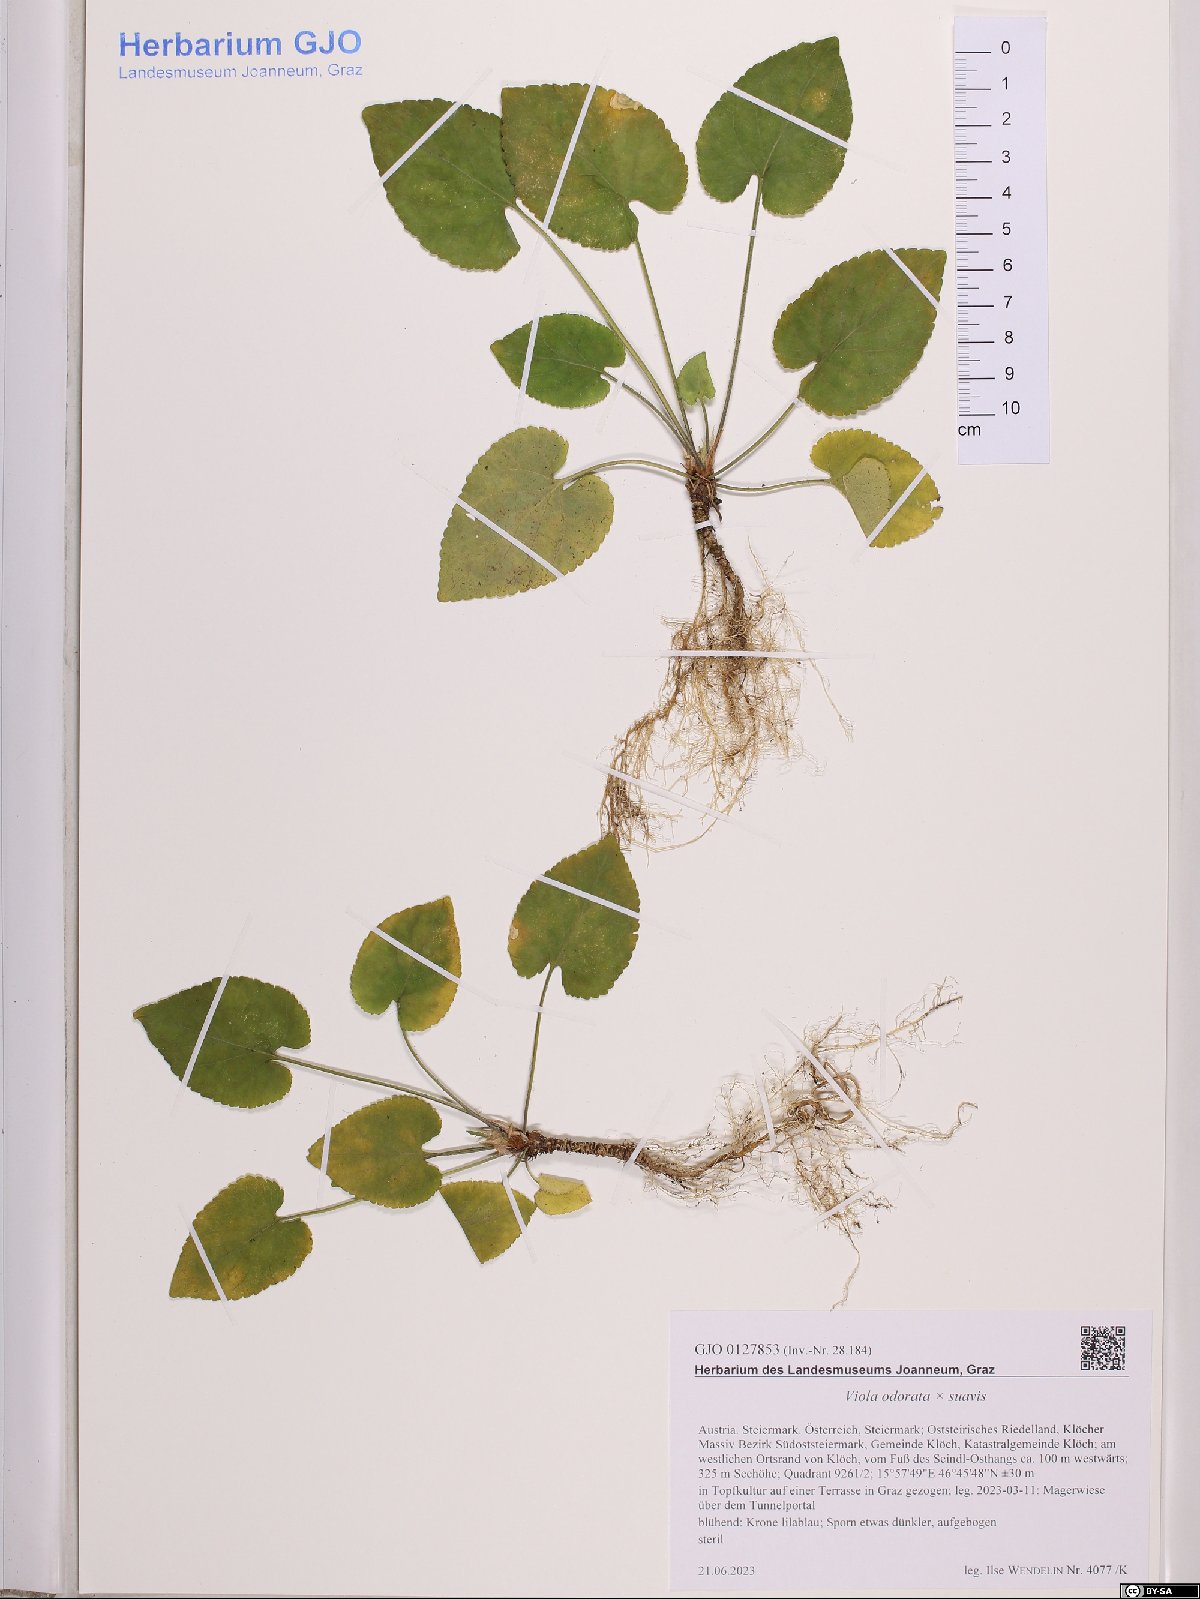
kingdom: Plantae
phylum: Tracheophyta
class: Magnoliopsida
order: Malpighiales
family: Violaceae
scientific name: Violaceae
